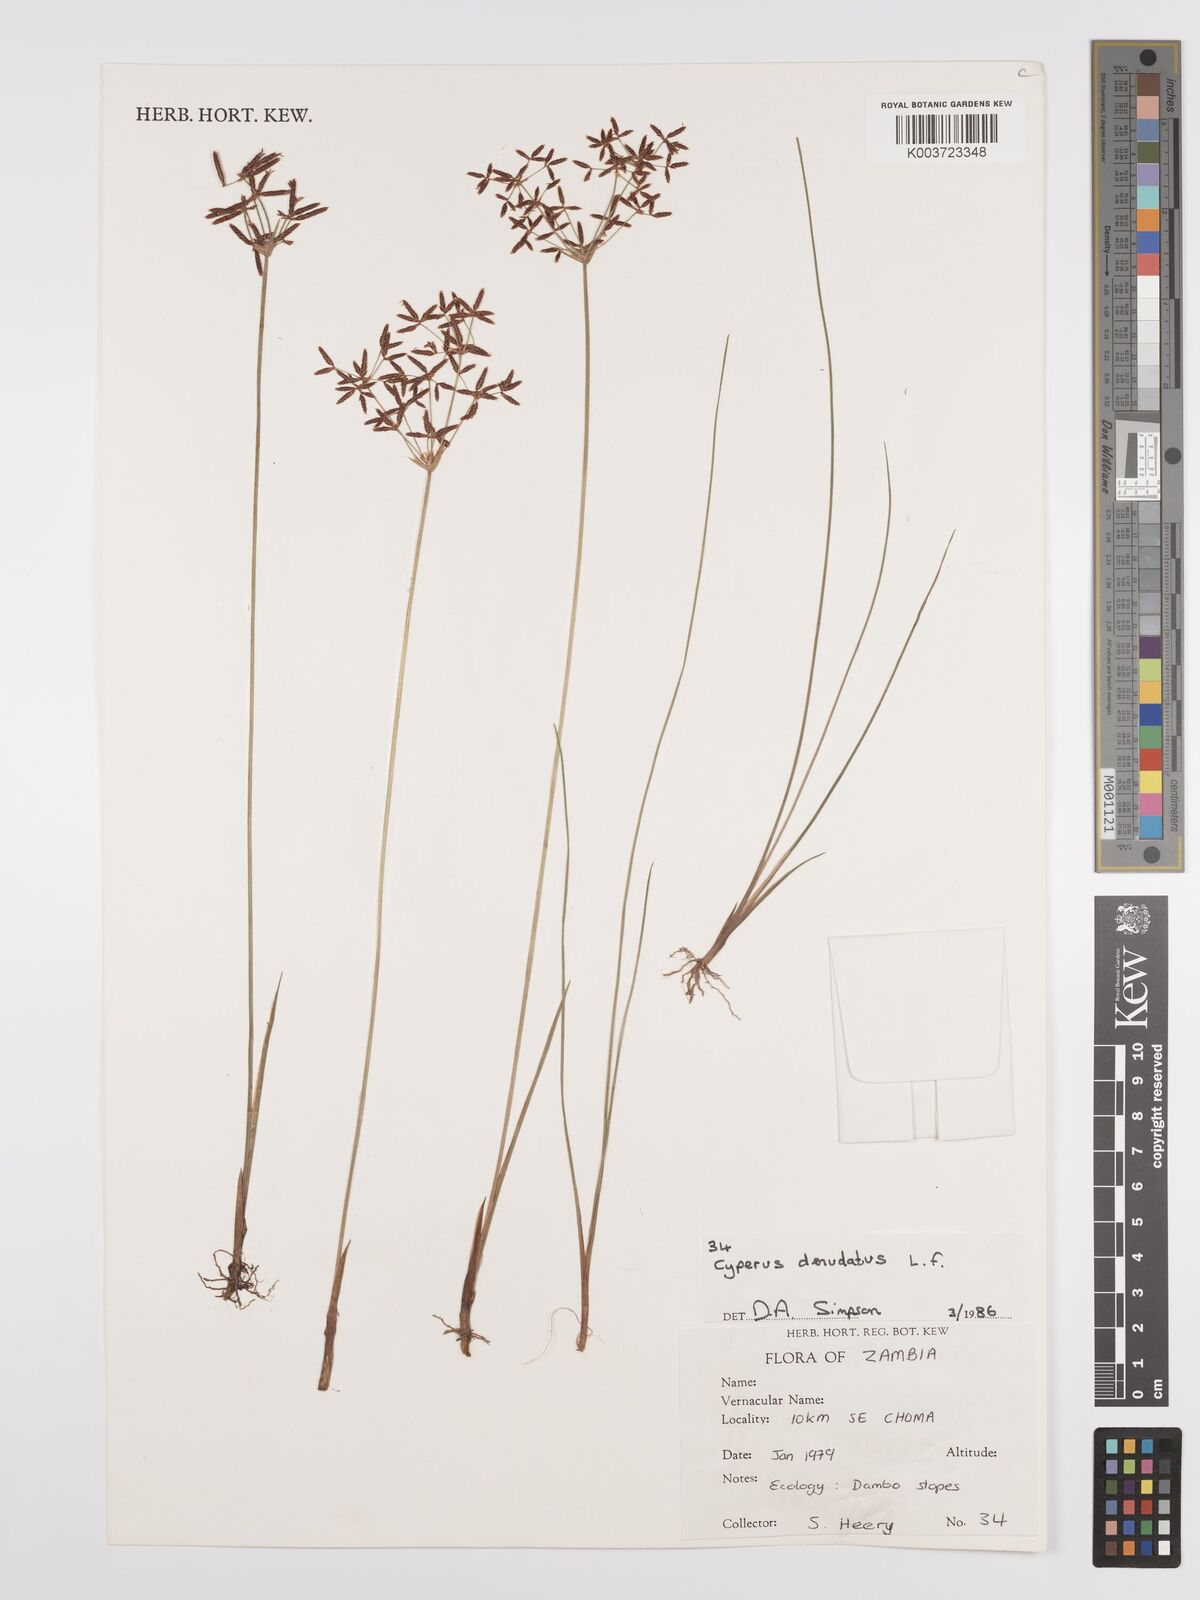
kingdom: Plantae
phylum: Tracheophyta
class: Liliopsida
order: Poales
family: Cyperaceae
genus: Cyperus
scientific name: Cyperus denudatus
